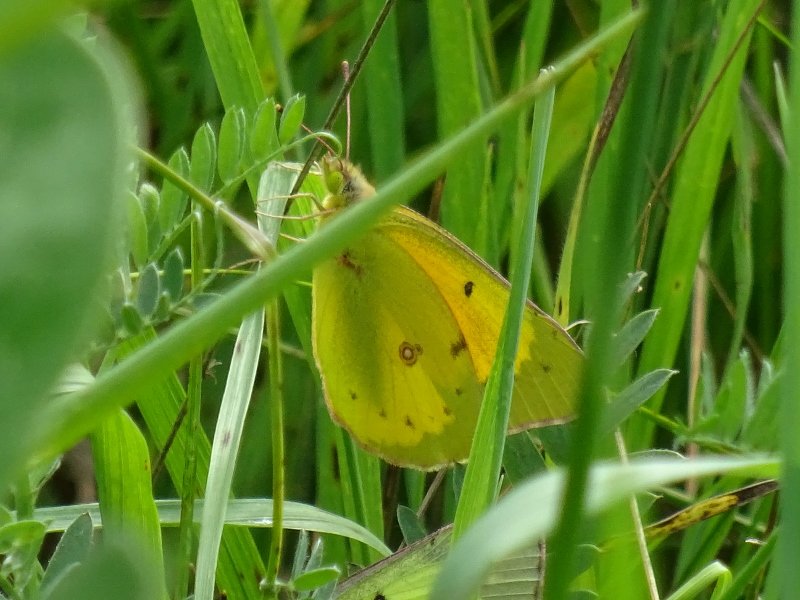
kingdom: Animalia
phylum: Arthropoda
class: Insecta
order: Lepidoptera
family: Pieridae
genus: Colias
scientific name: Colias eurytheme
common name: Orange Sulphur
